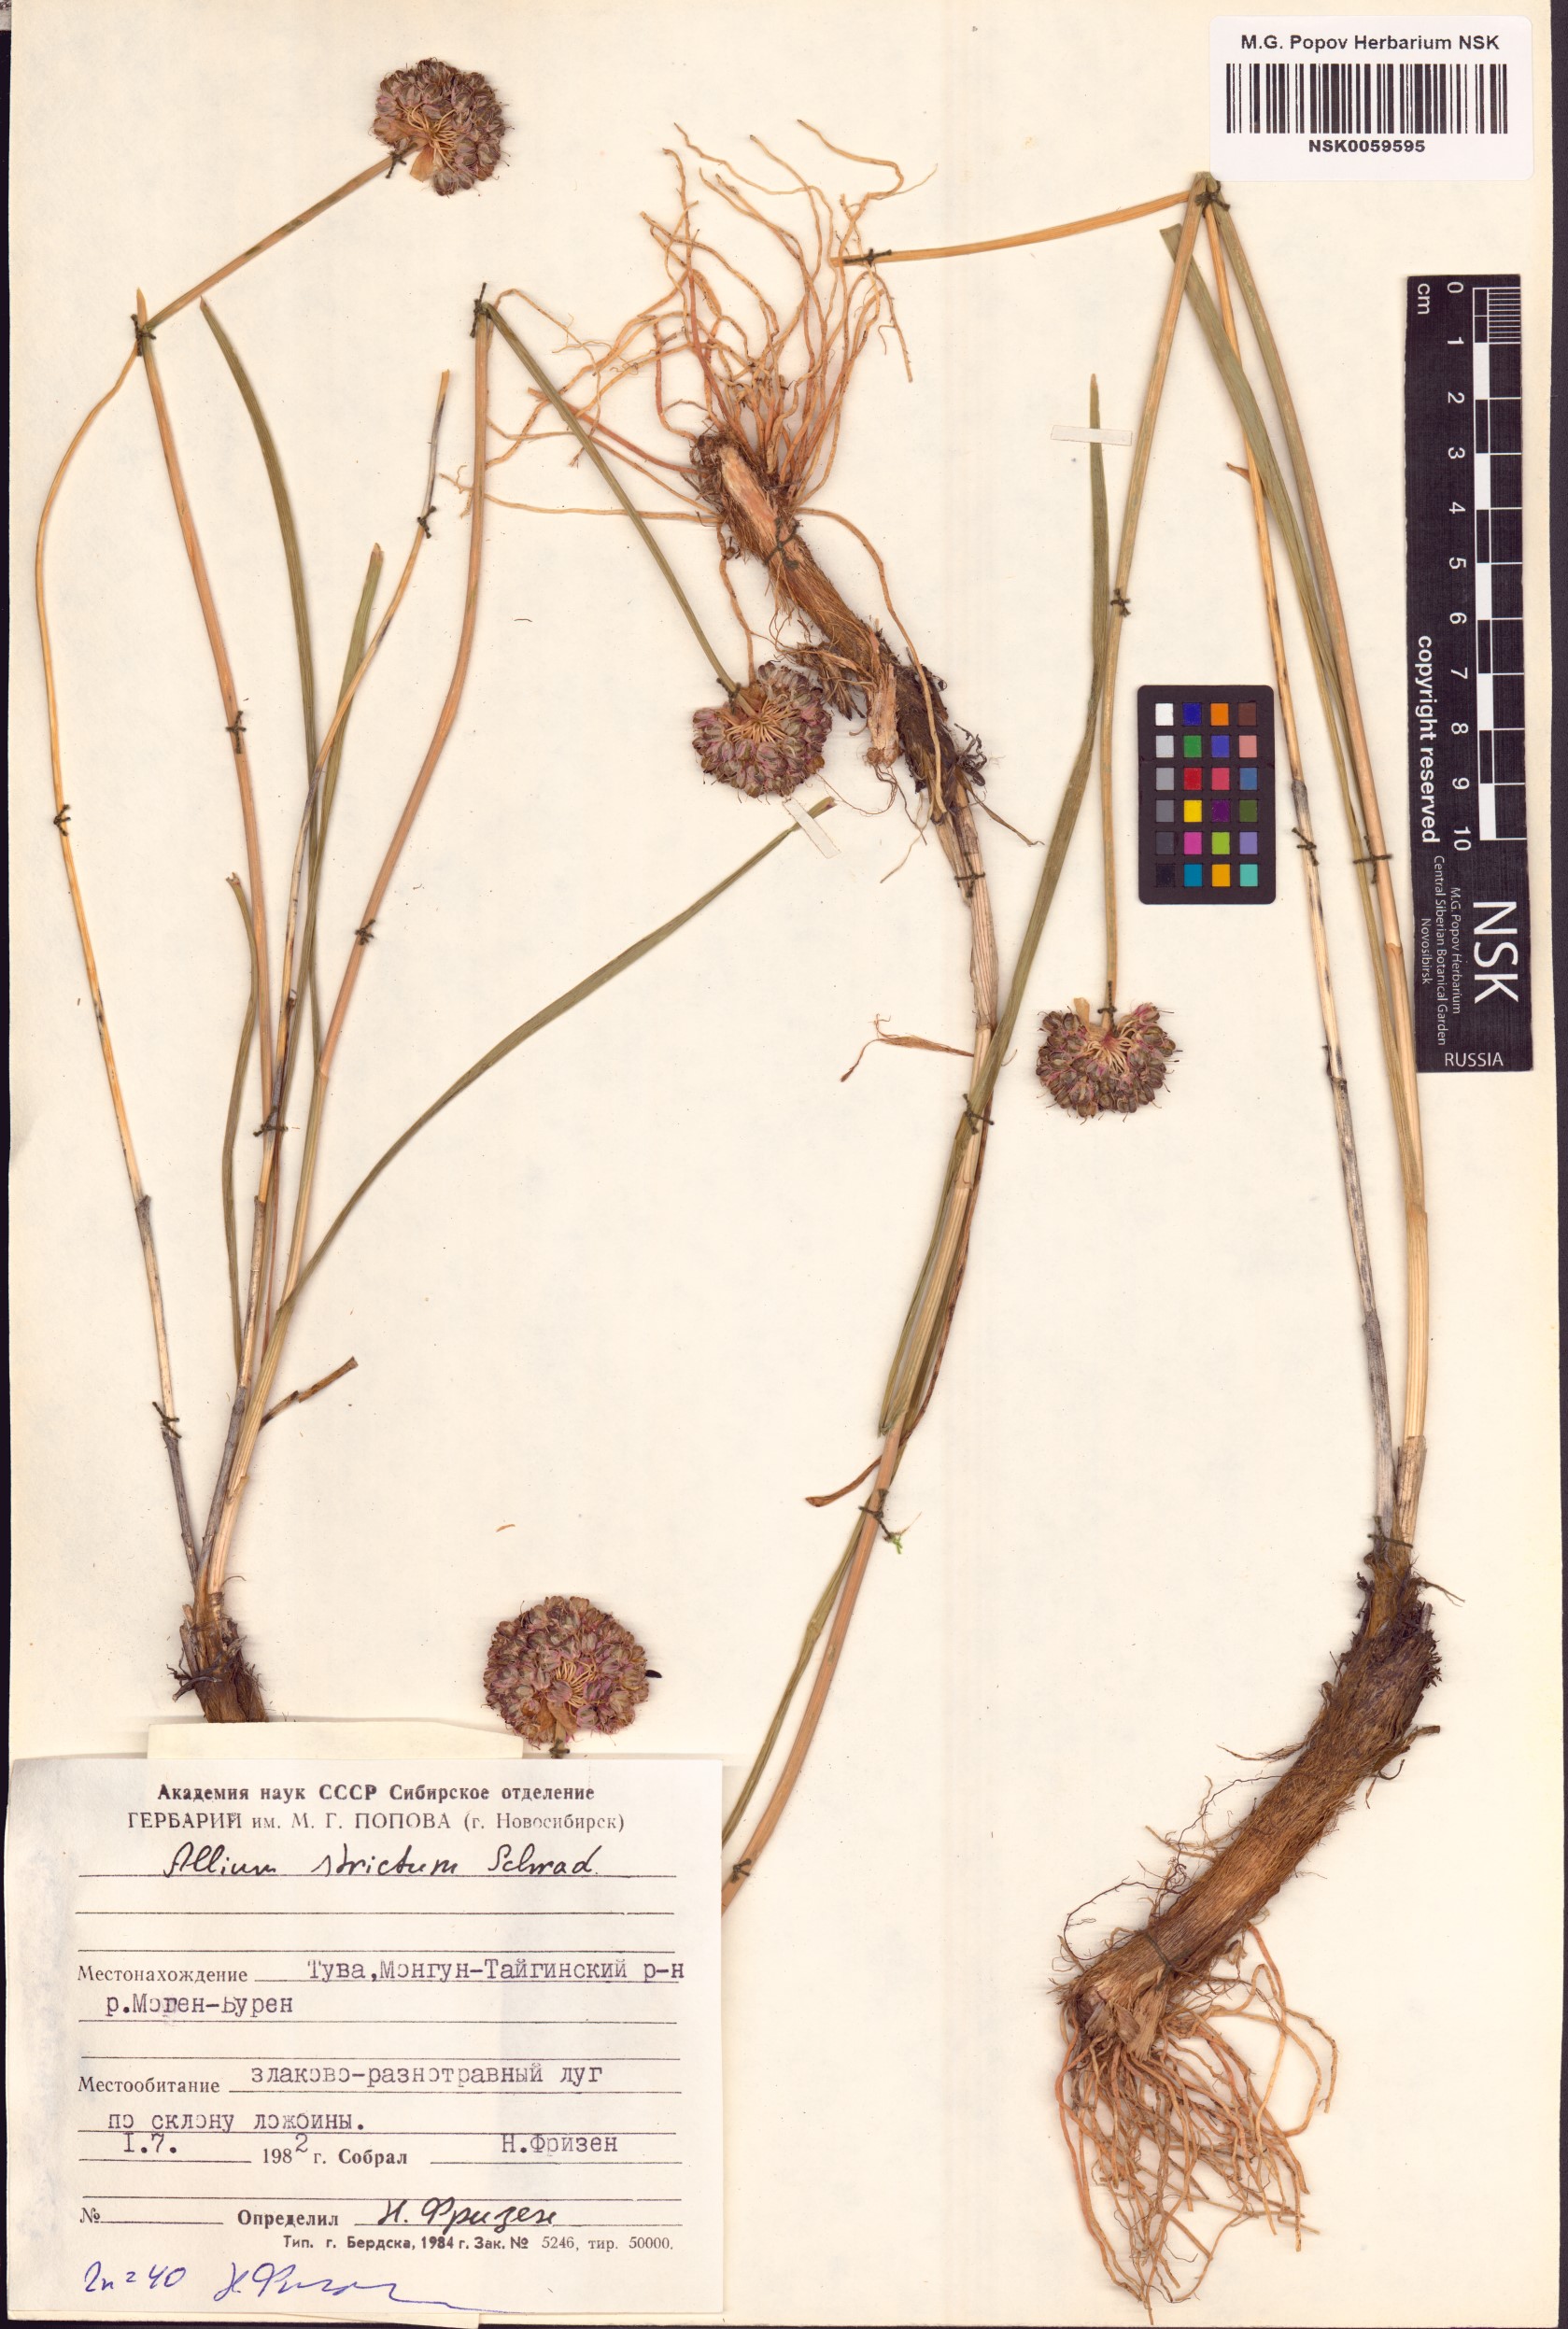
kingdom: Plantae
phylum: Tracheophyta
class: Liliopsida
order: Asparagales
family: Amaryllidaceae
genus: Allium
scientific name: Allium strictum
